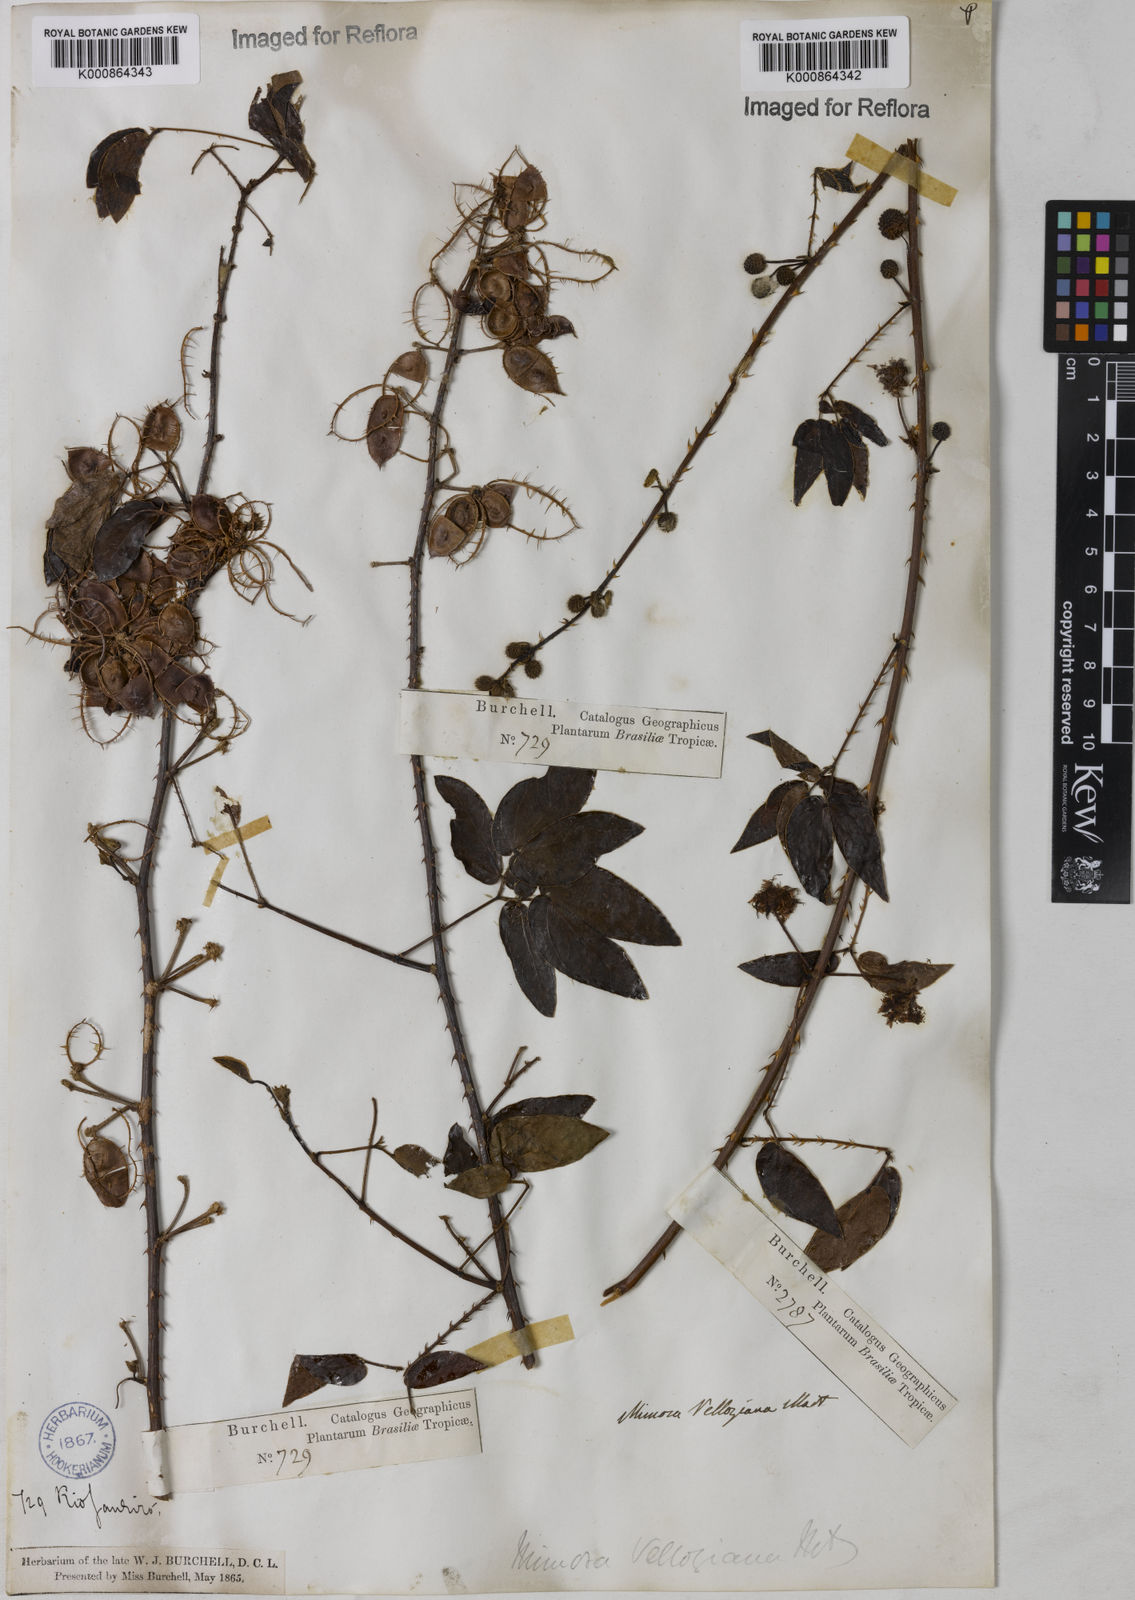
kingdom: Plantae
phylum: Tracheophyta
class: Magnoliopsida
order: Fabales
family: Fabaceae
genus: Mimosa
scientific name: Mimosa velloziana
